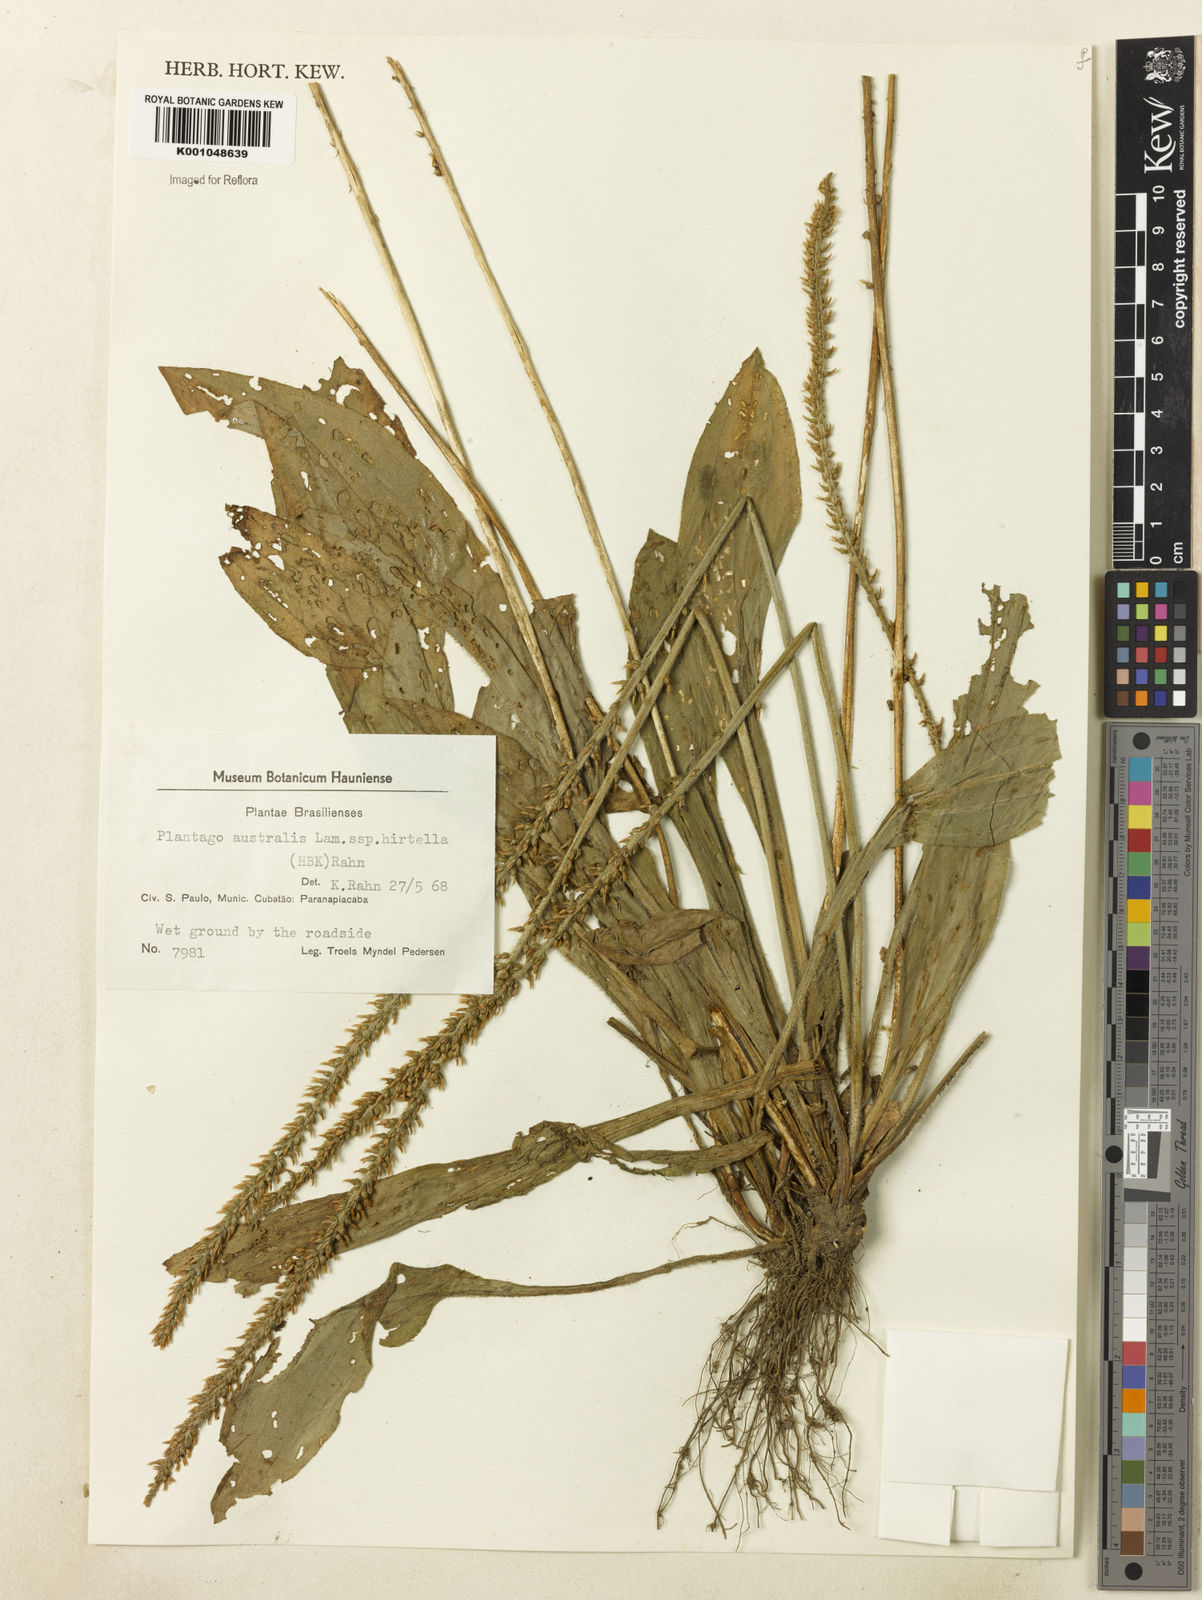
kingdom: Plantae
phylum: Tracheophyta
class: Magnoliopsida
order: Lamiales
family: Plantaginaceae
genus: Plantago
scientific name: Plantago australis
